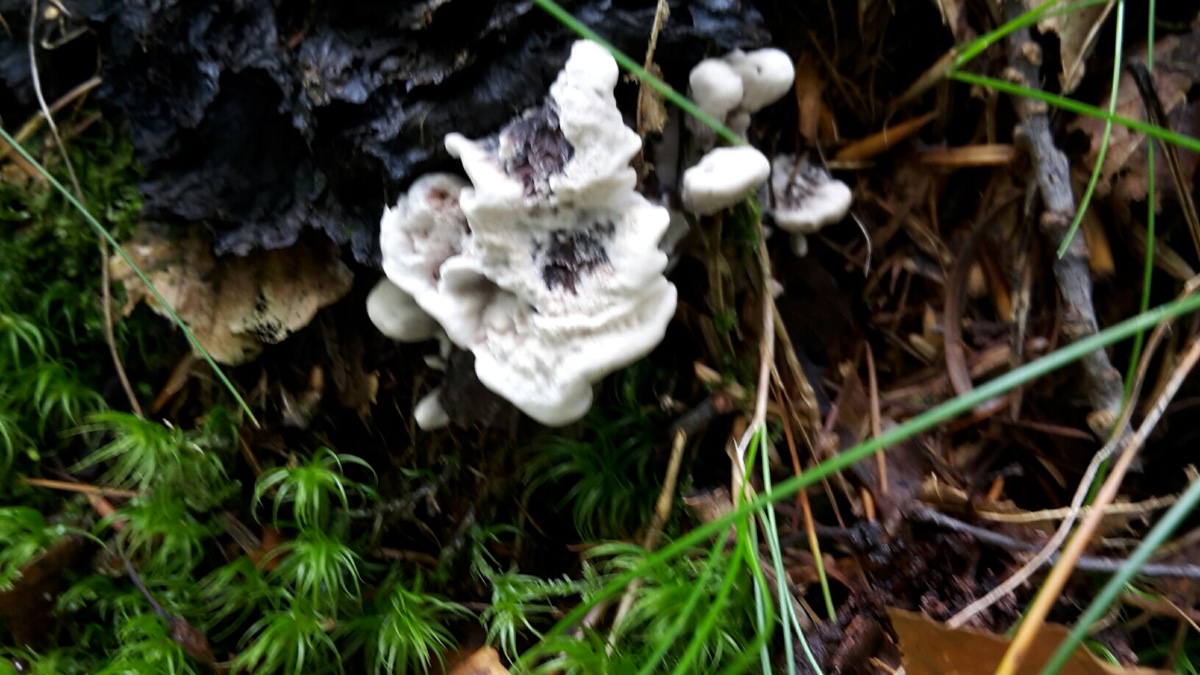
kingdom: Fungi
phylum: Basidiomycota
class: Agaricomycetes
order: Thelephorales
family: Thelephoraceae
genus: Phellodon
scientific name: Phellodon confluens
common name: pjaltet duftpigsvamp
